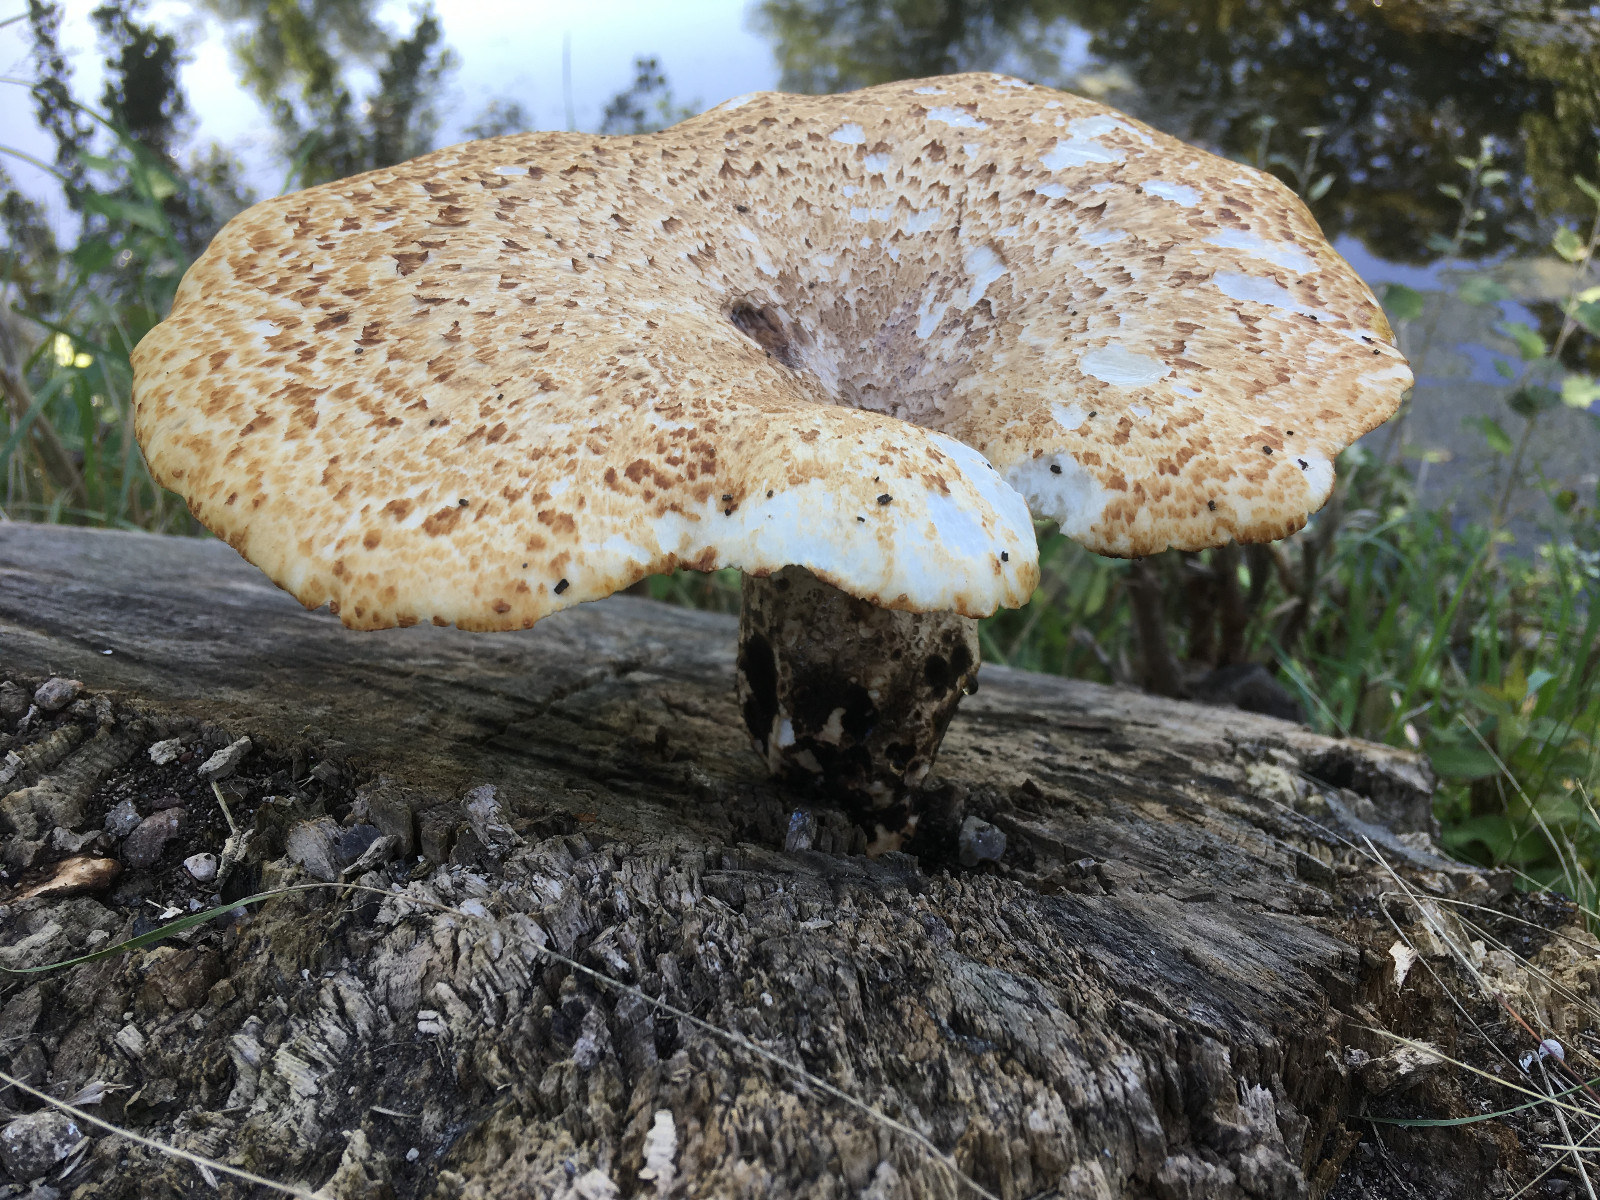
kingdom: Fungi
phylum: Basidiomycota
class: Agaricomycetes
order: Polyporales
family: Polyporaceae
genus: Cerioporus
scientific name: Cerioporus squamosus
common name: skællet stilkporesvamp
